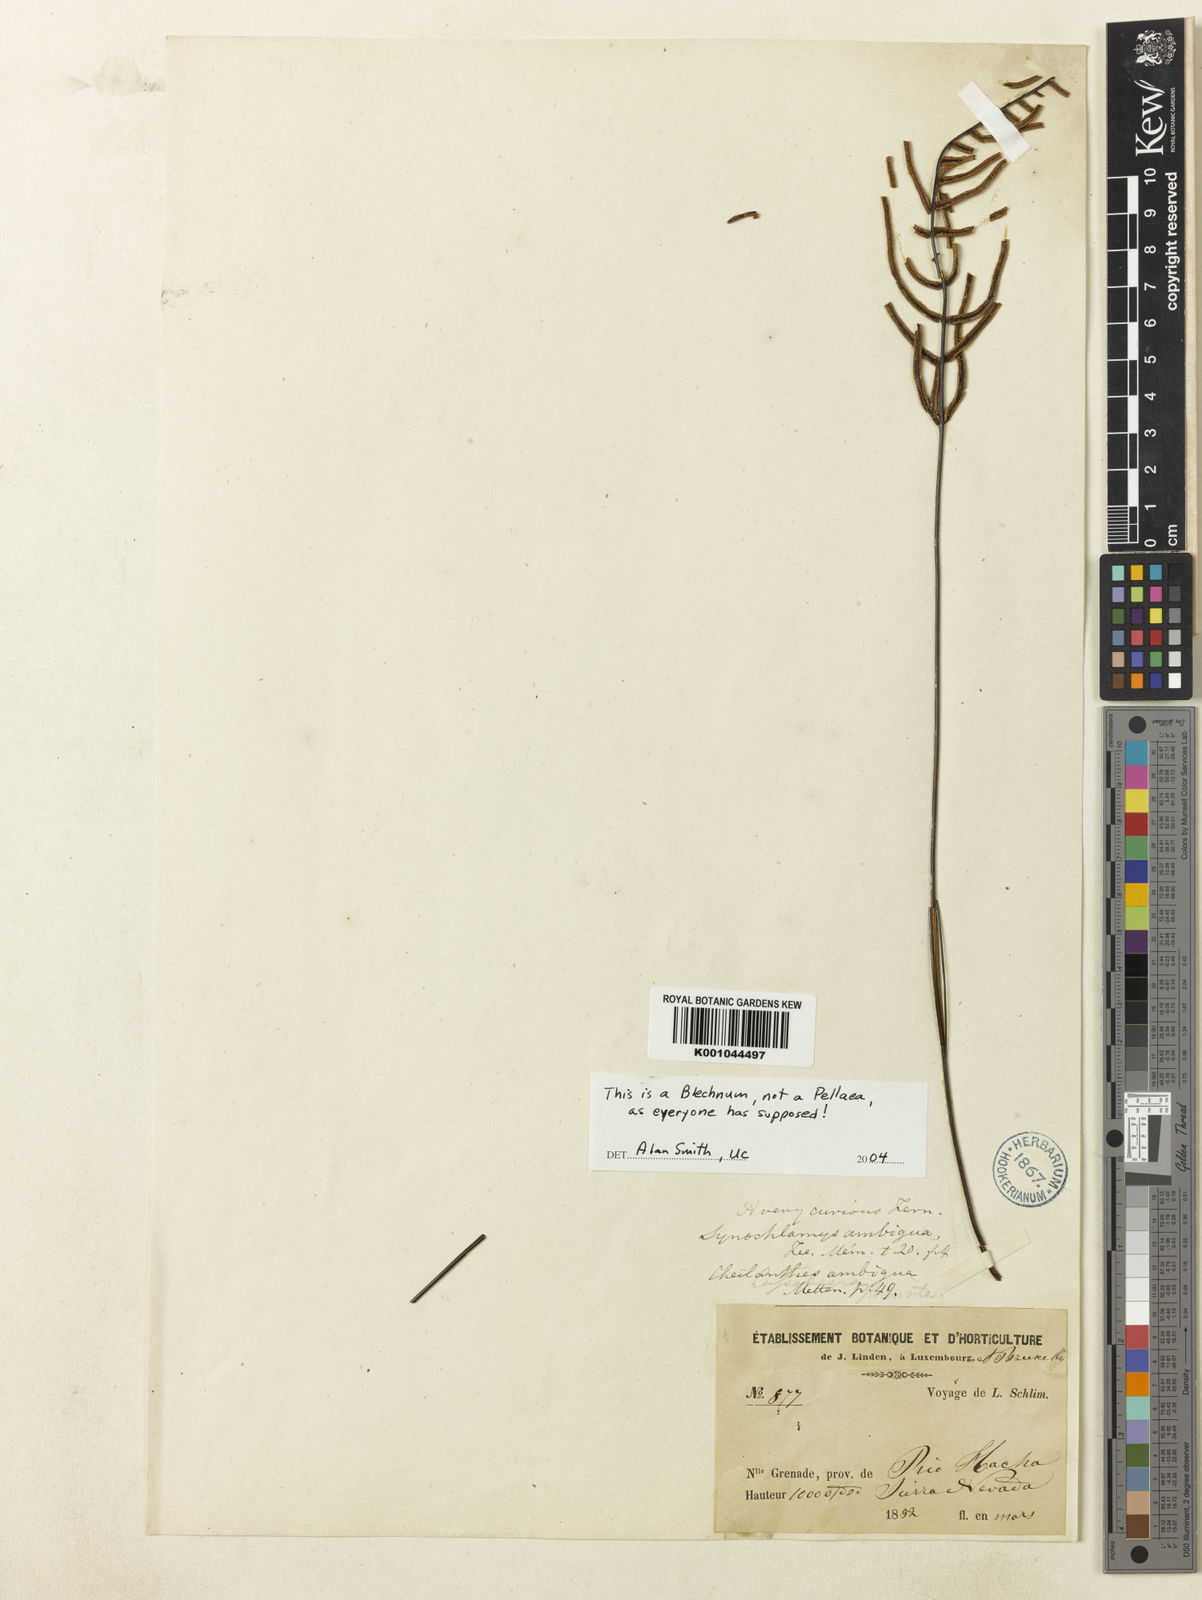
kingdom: Plantae
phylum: Tracheophyta
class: Polypodiopsida
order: Polypodiales
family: Pteridaceae
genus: Pellaea
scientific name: Pellaea
